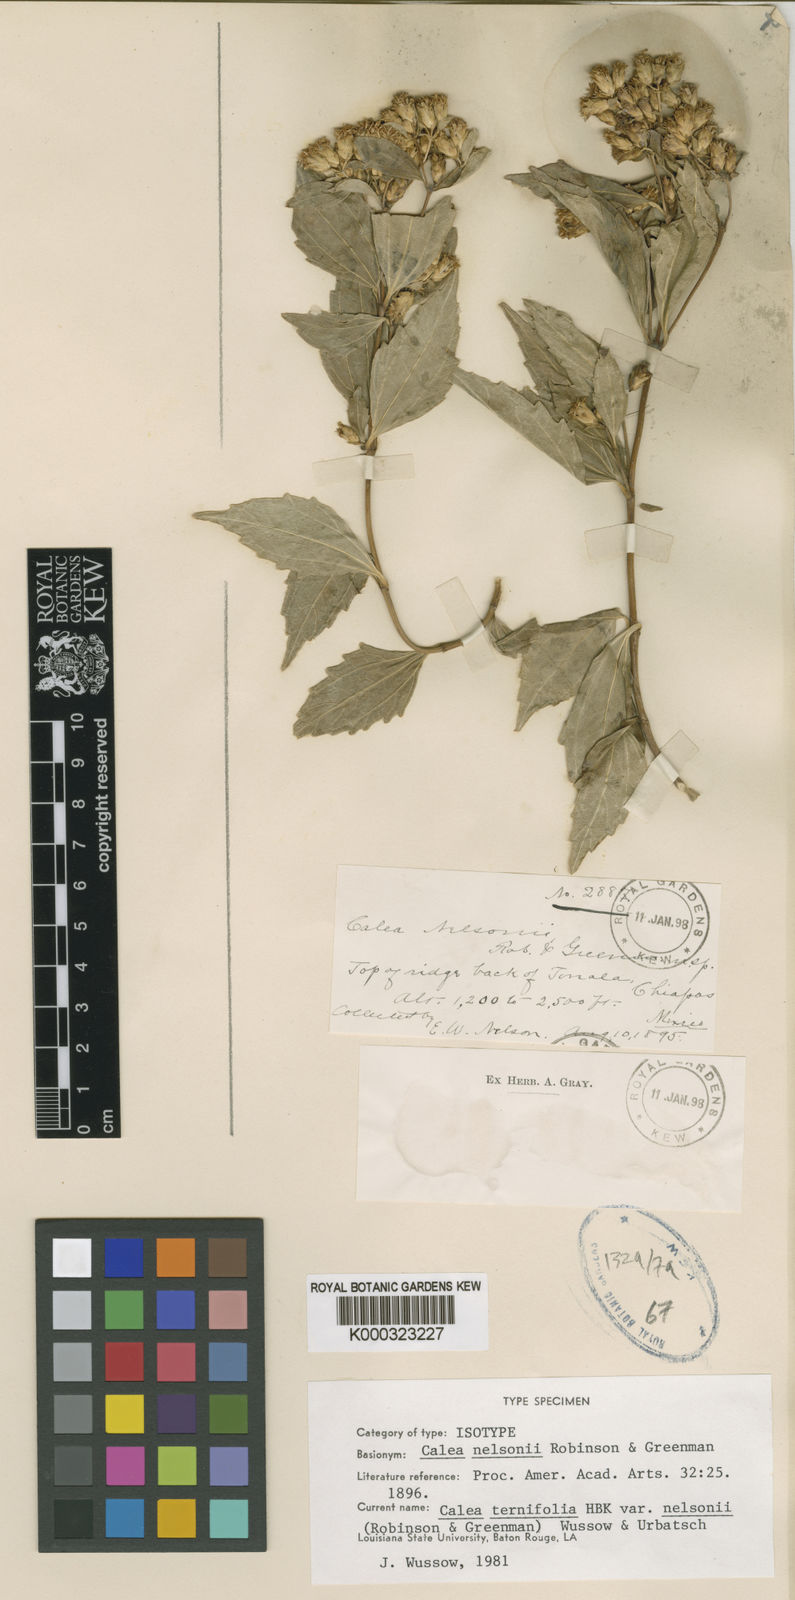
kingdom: Plantae
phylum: Tracheophyta
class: Magnoliopsida
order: Asterales
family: Asteraceae
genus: Calea
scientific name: Calea nelsonii
